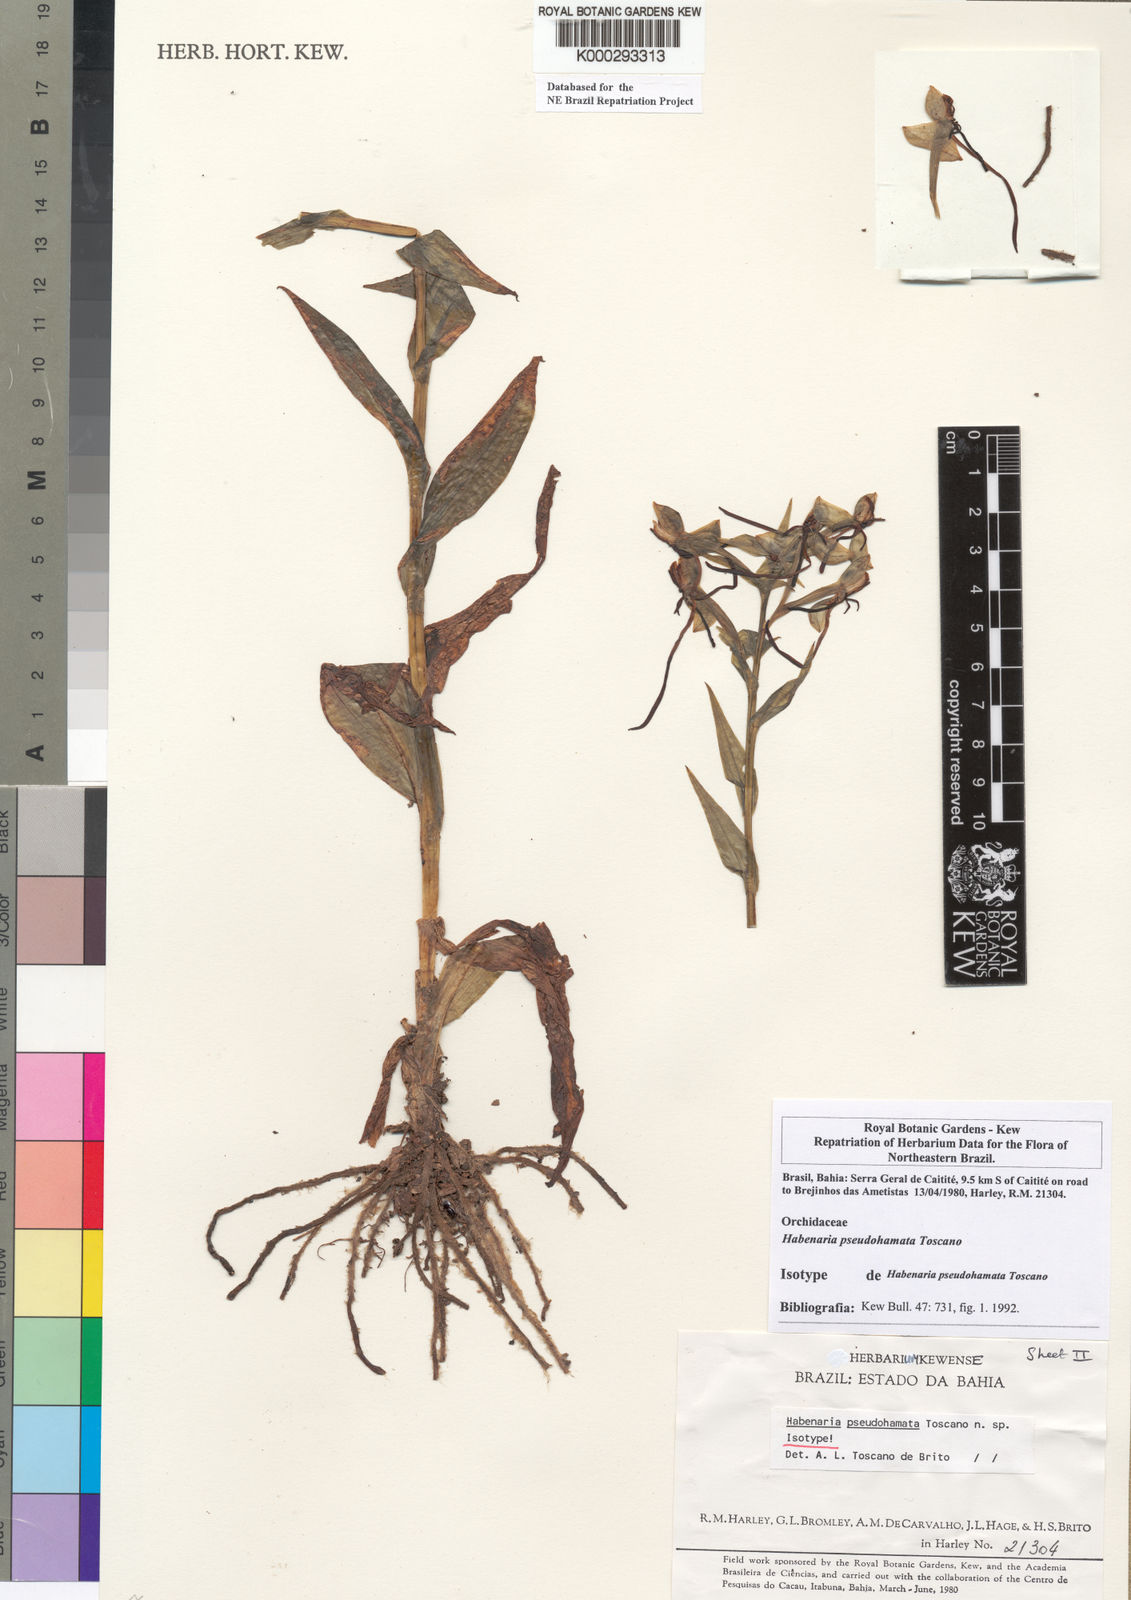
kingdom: Plantae
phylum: Tracheophyta
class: Liliopsida
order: Asparagales
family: Orchidaceae
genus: Habenaria
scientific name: Habenaria pseudohamata
